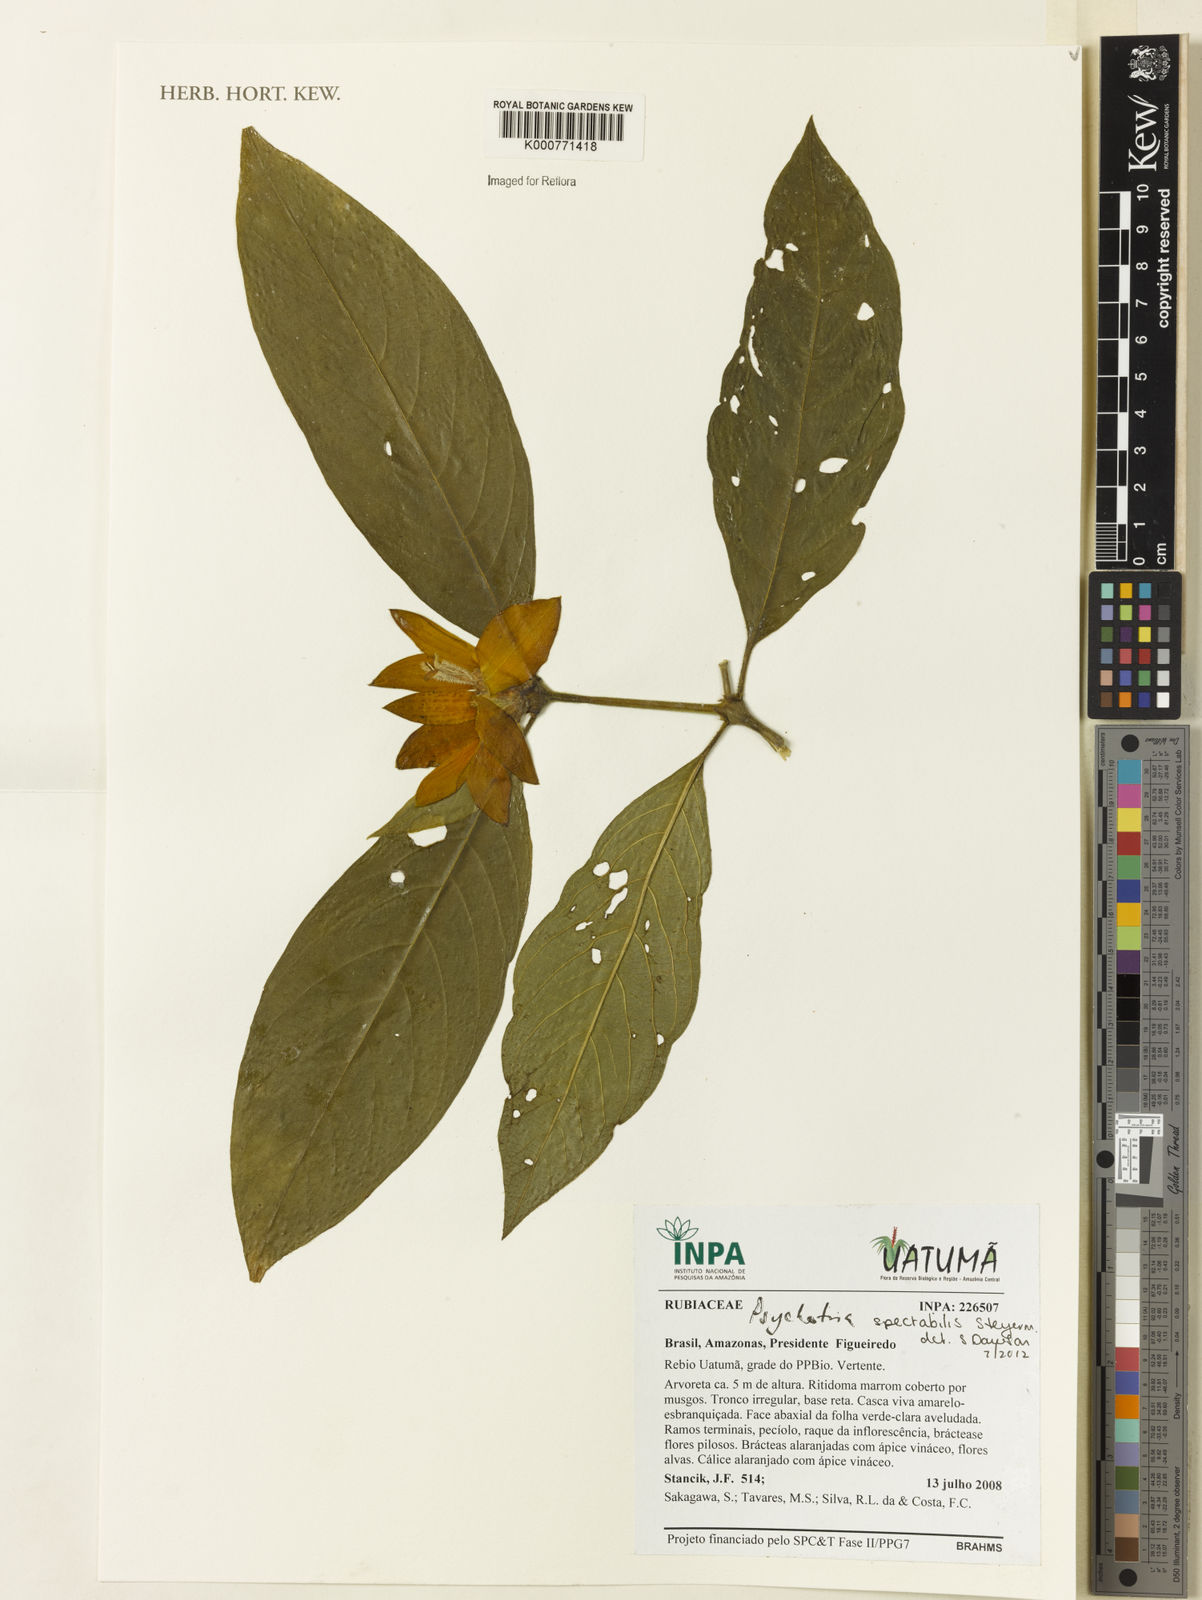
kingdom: Plantae
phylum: Tracheophyta
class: Magnoliopsida
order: Gentianales
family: Rubiaceae
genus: Psychotria
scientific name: Psychotria
